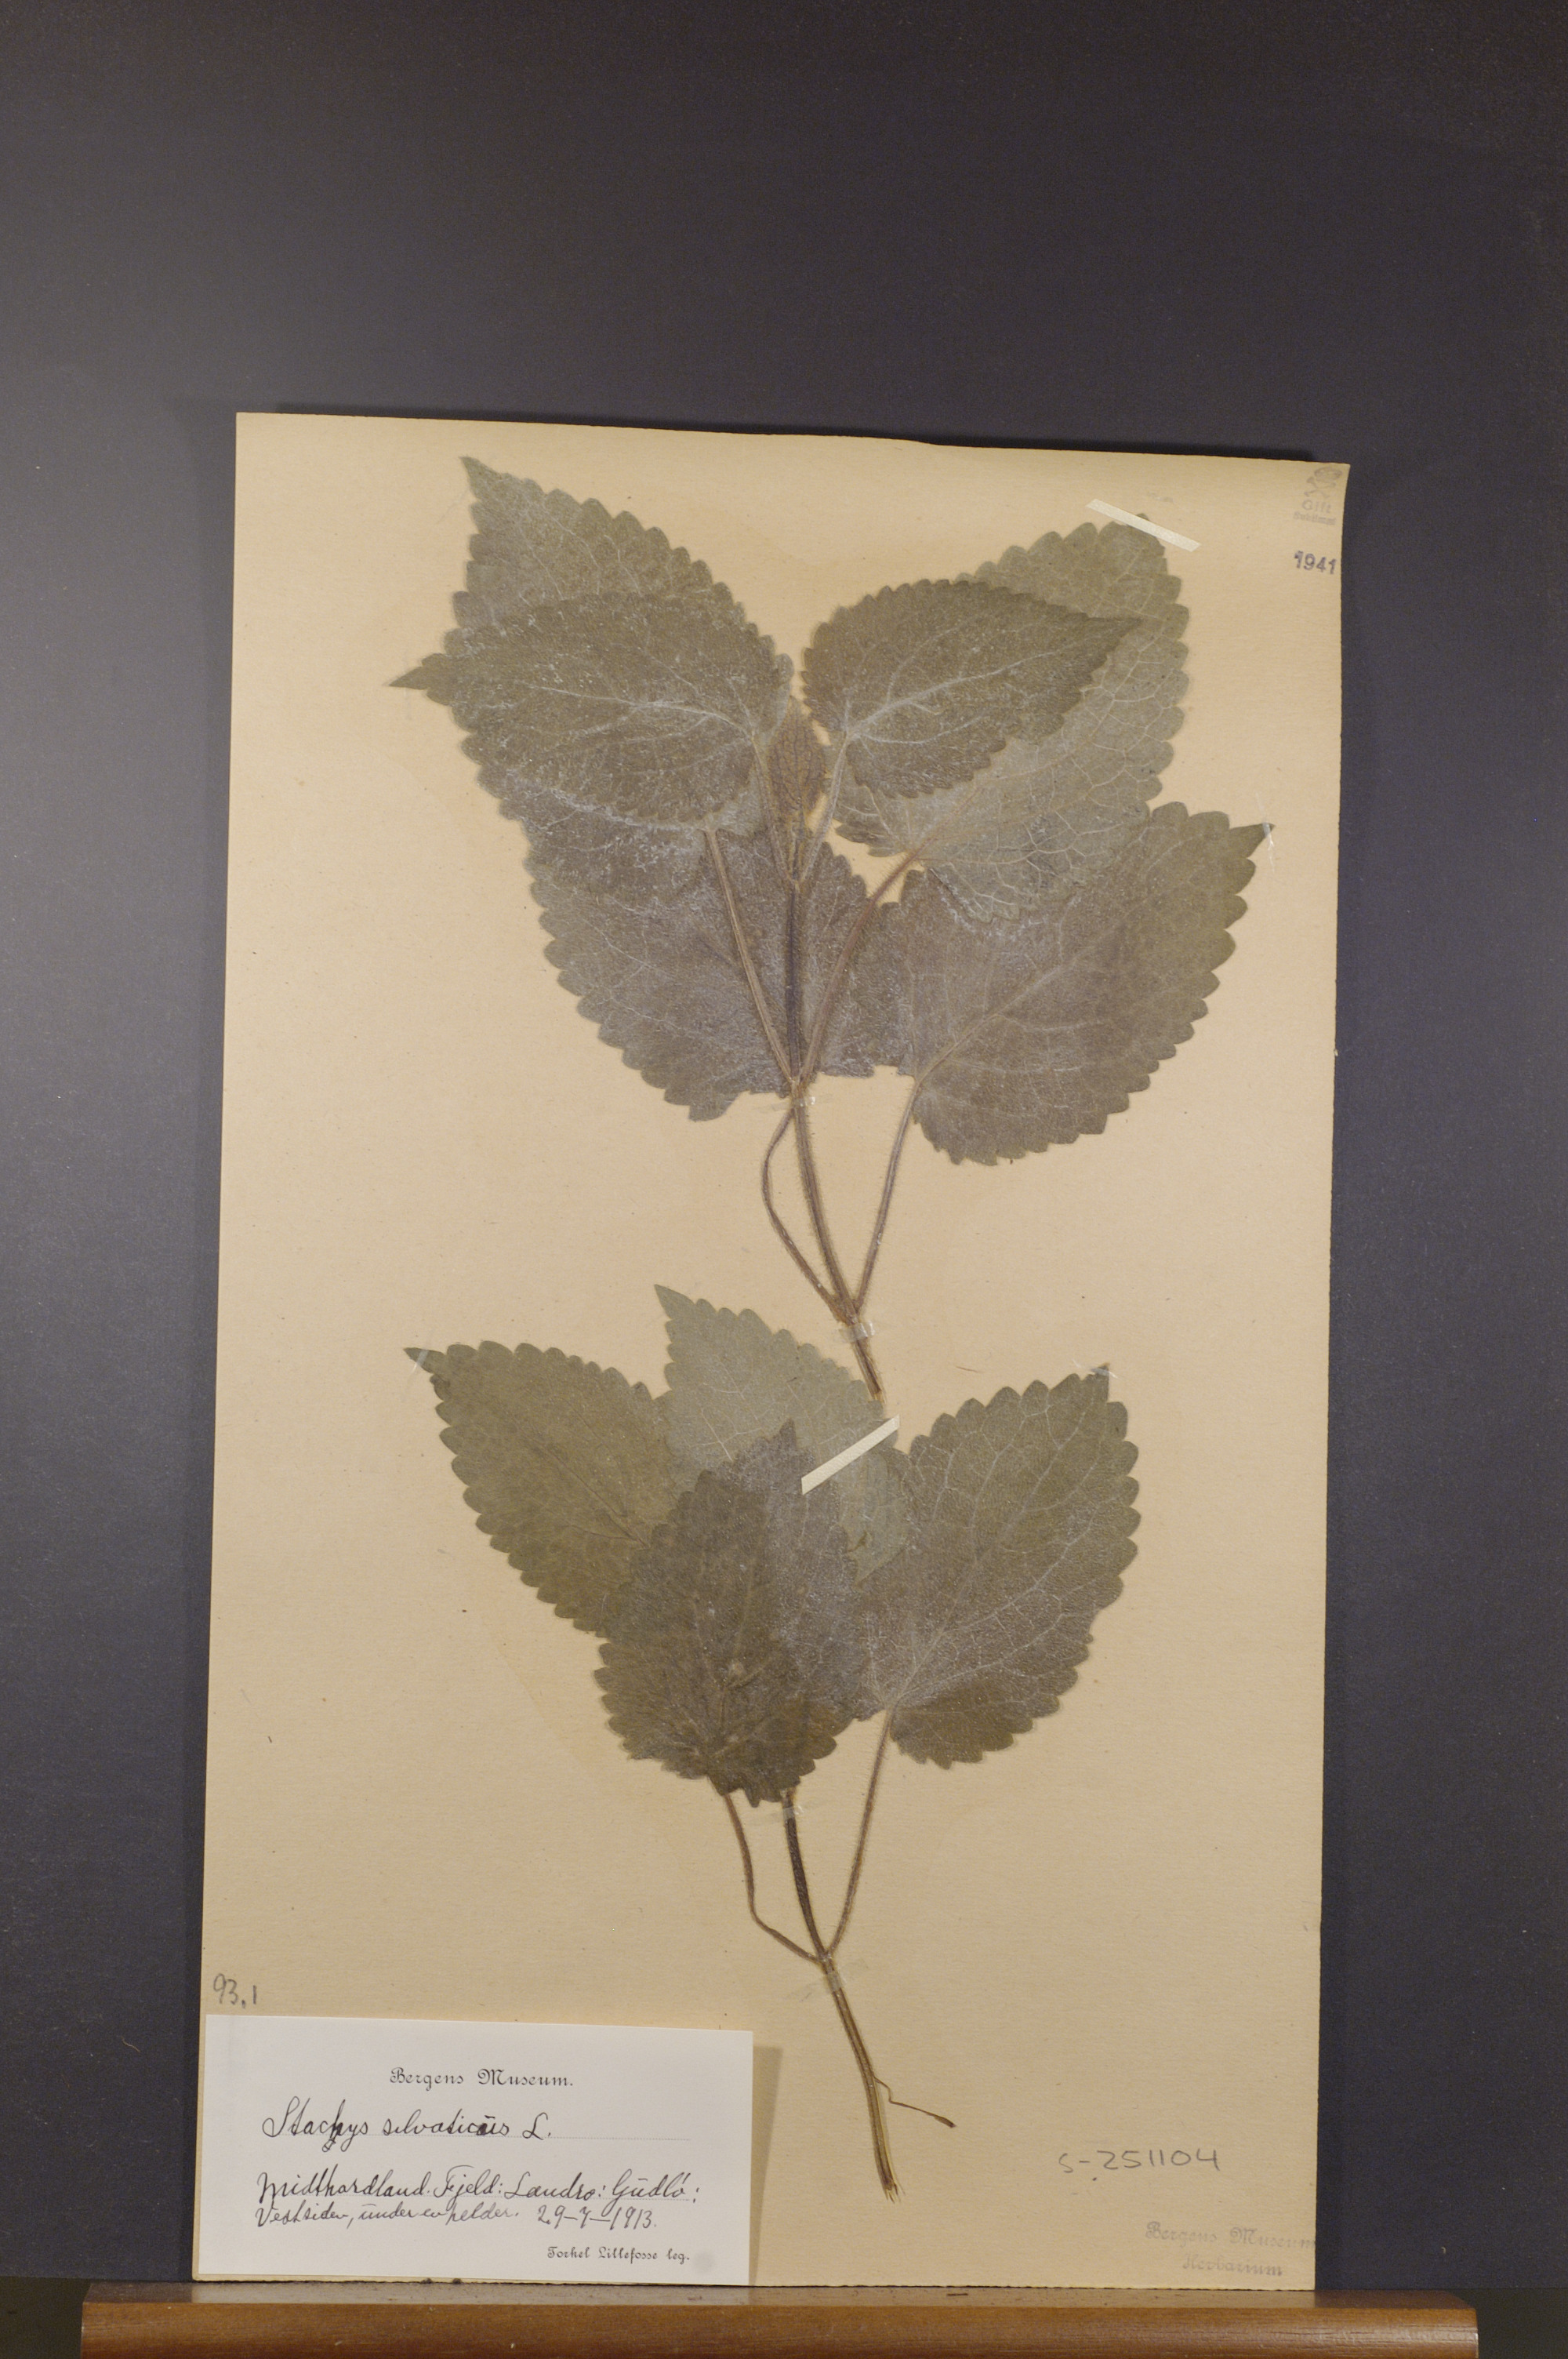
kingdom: Plantae
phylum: Tracheophyta
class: Magnoliopsida
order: Lamiales
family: Lamiaceae
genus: Stachys
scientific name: Stachys sylvatica
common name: Hedge woundwort
